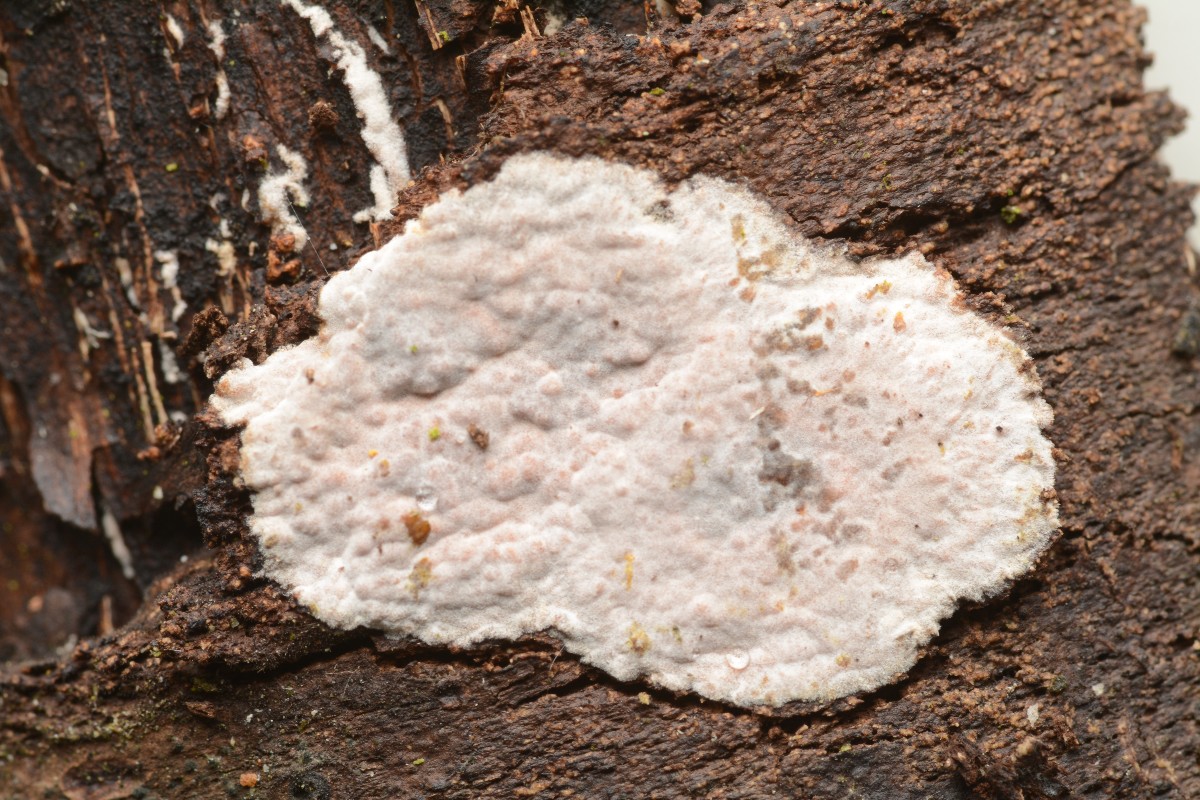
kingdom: Fungi
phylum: Basidiomycota
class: Agaricomycetes
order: Russulales
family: Peniophoraceae
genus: Peniophora
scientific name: Peniophora polygonia
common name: polygon-voksskind
